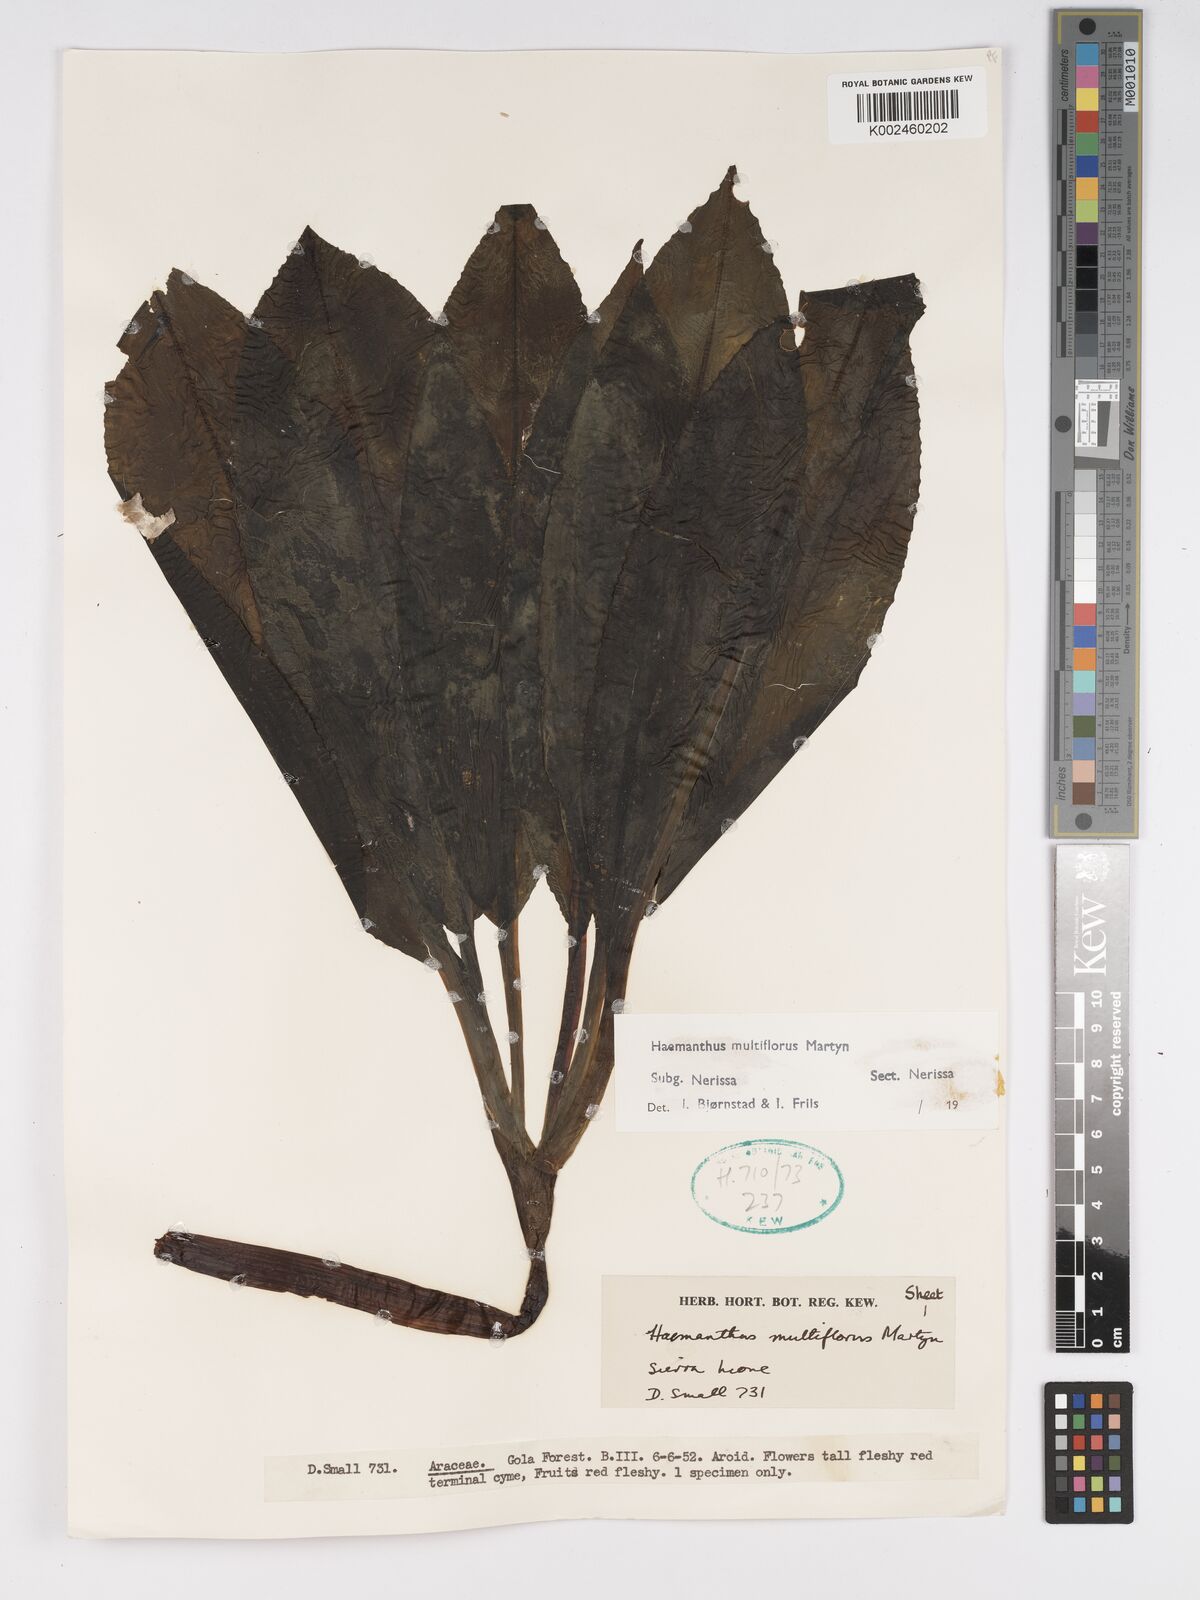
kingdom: Plantae
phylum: Tracheophyta
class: Liliopsida
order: Asparagales
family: Amaryllidaceae
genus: Scadoxus
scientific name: Scadoxus multiflorus
